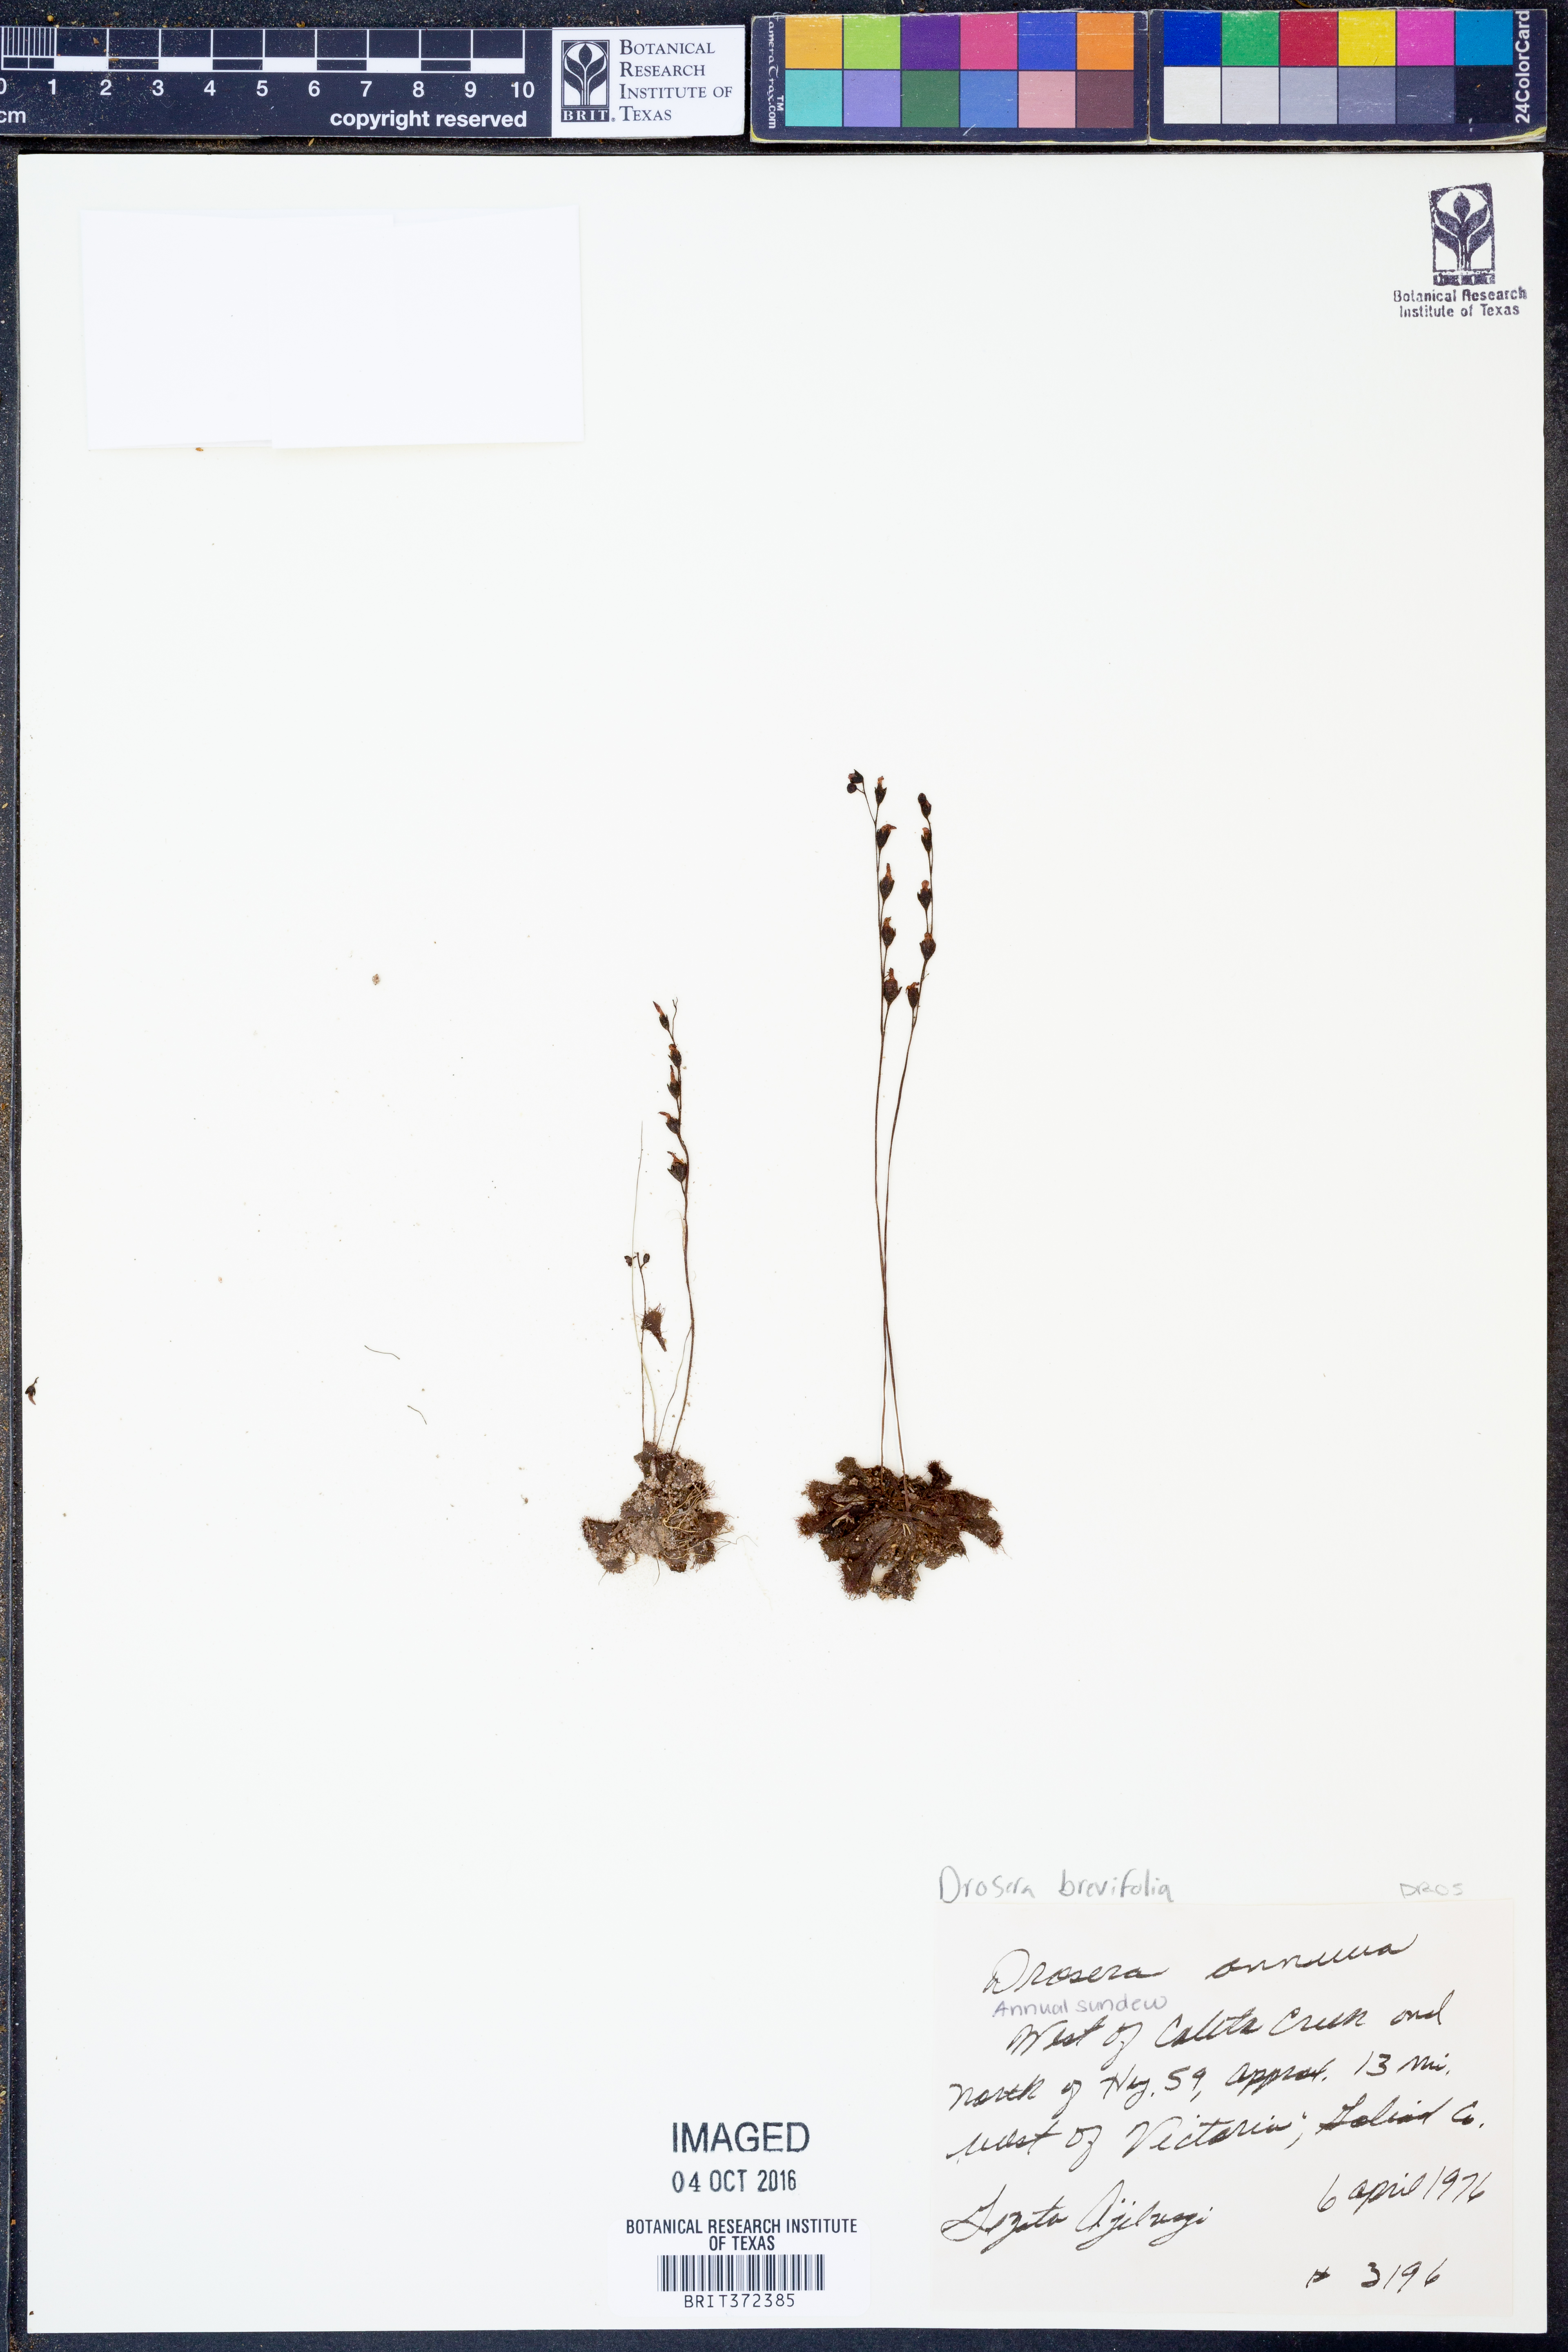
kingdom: Plantae
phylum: Tracheophyta
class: Magnoliopsida
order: Caryophyllales
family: Droseraceae
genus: Drosera
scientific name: Drosera brevifolia
